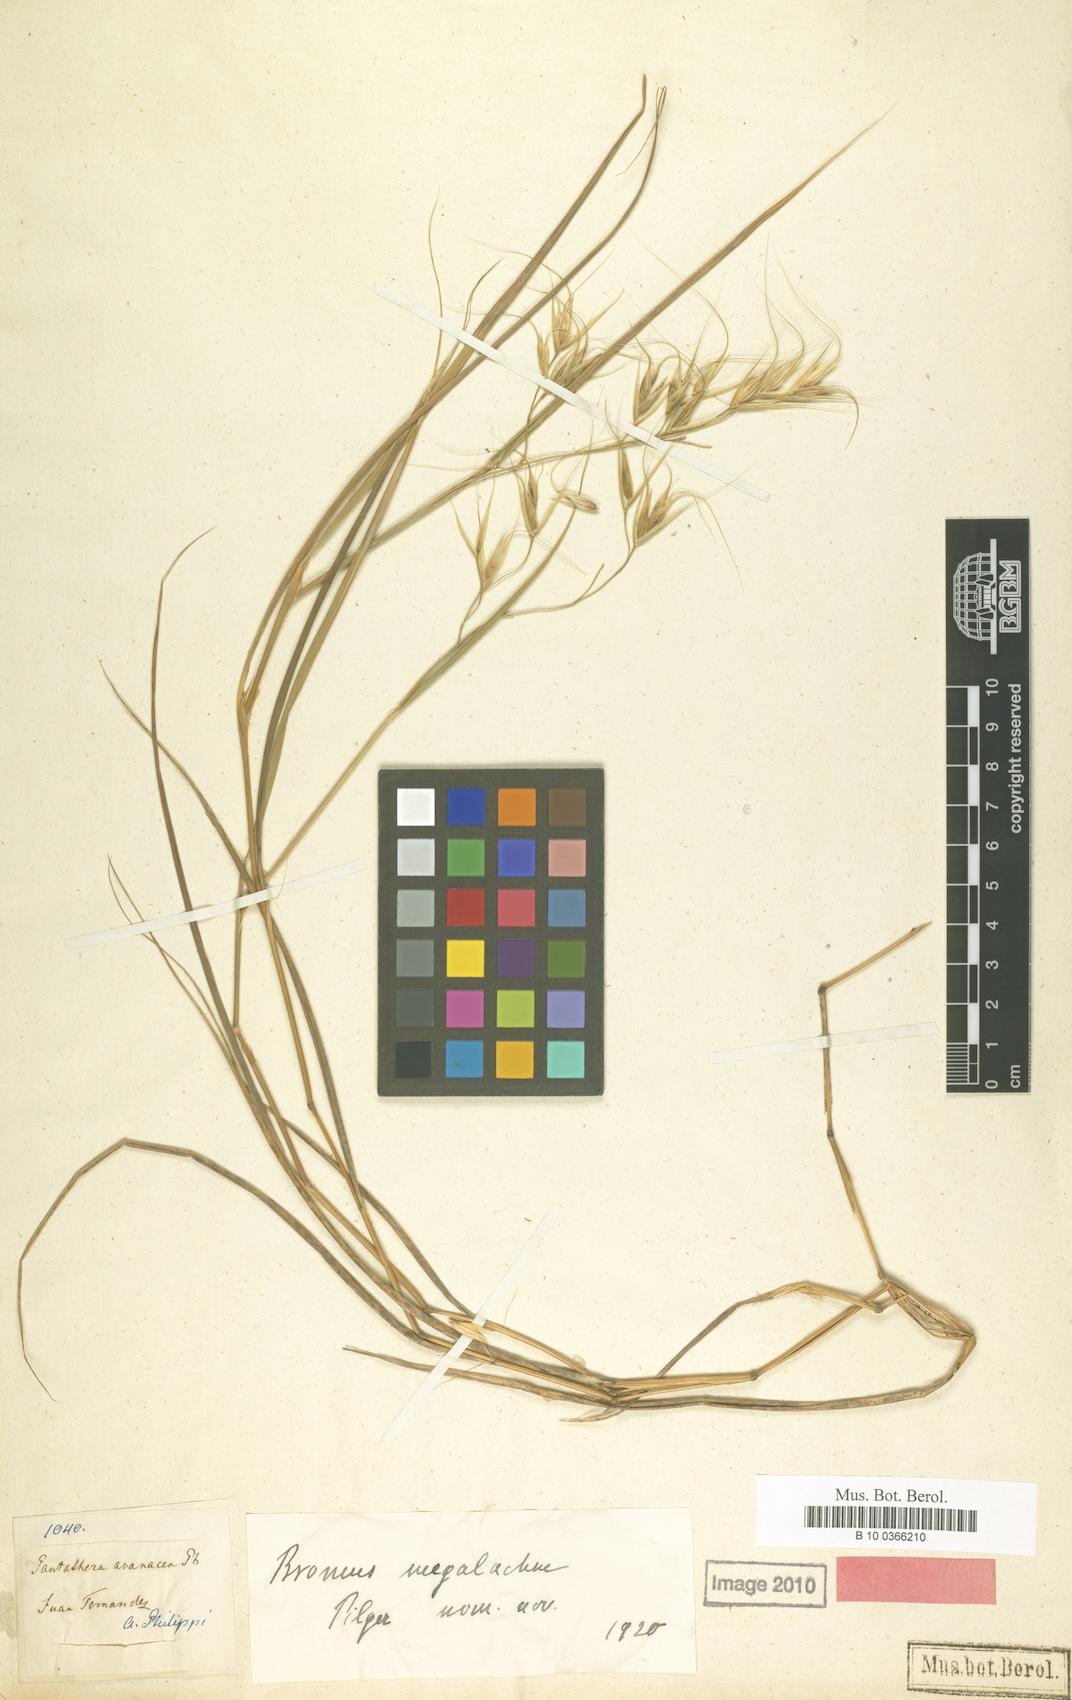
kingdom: Plantae
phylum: Tracheophyta
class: Liliopsida
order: Poales
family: Poaceae
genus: Megalachne
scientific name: Megalachne berteroniana
